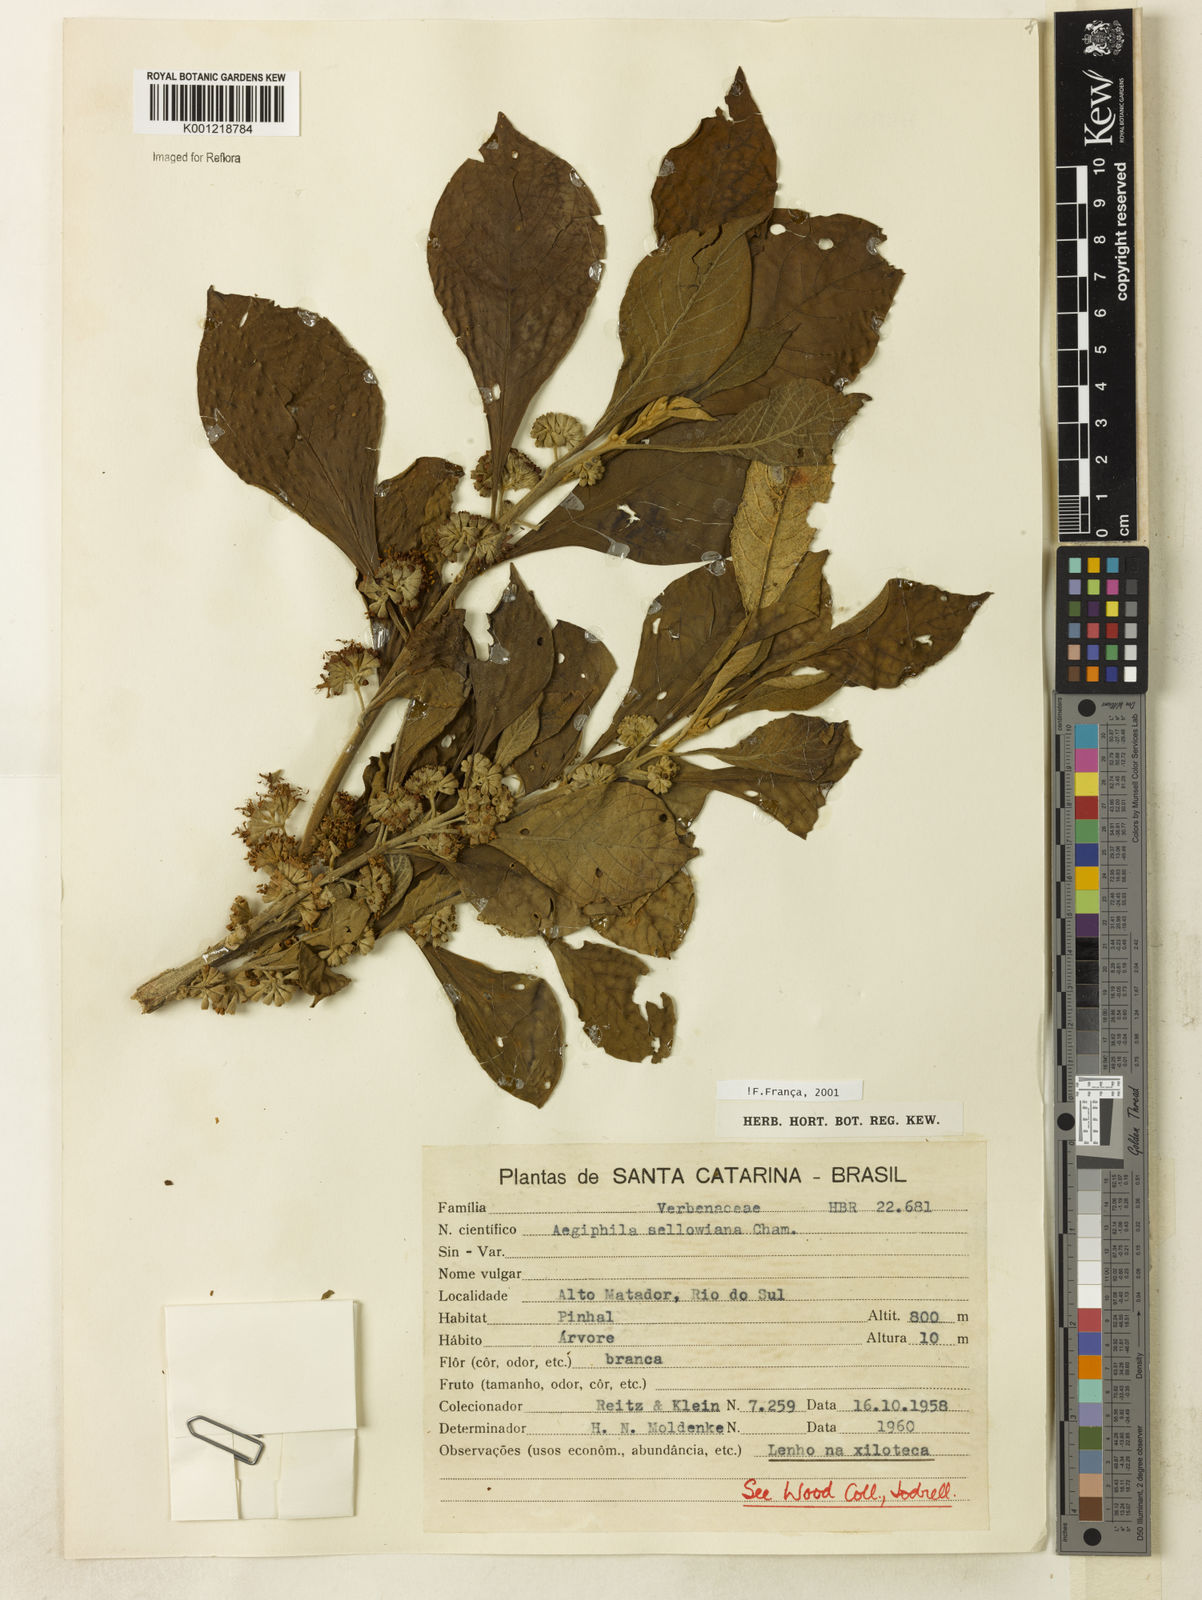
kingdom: Plantae
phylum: Tracheophyta
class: Magnoliopsida
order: Lamiales
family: Lamiaceae
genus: Aegiphila
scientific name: Aegiphila verticillata
